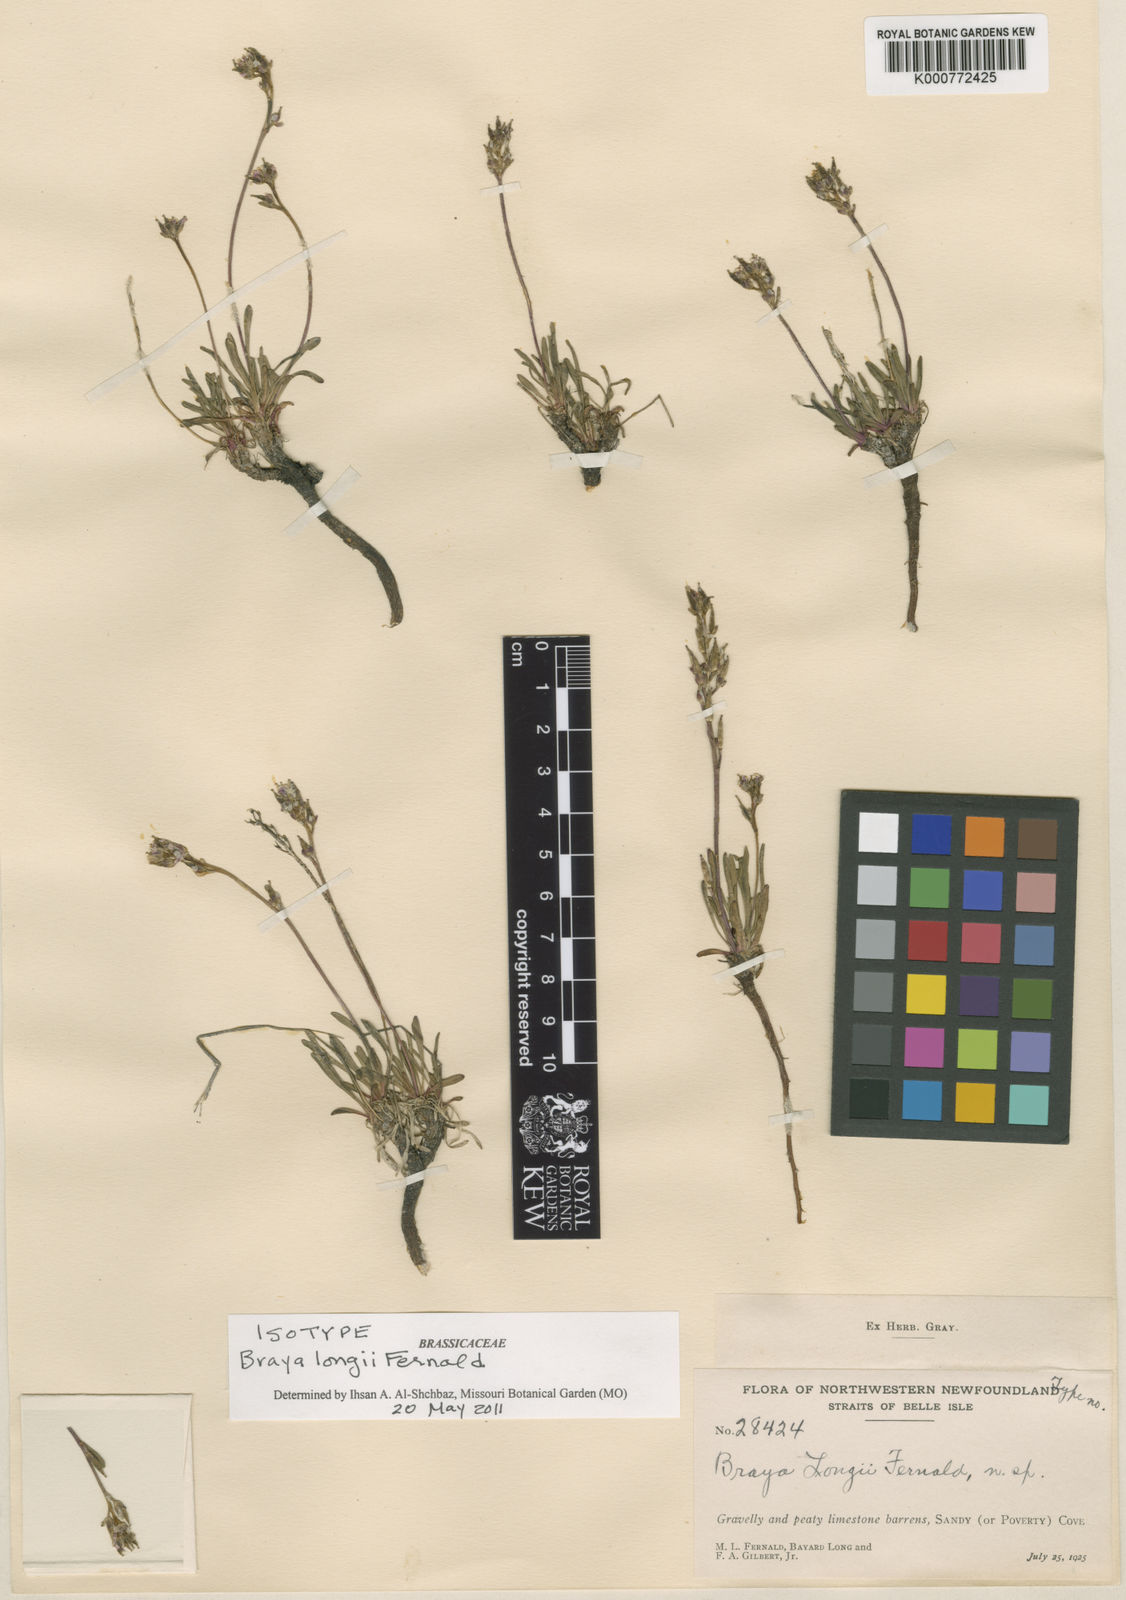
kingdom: Plantae
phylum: Tracheophyta
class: Magnoliopsida
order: Brassicales
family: Brassicaceae
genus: Braya
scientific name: Braya longii
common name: Long's braya
